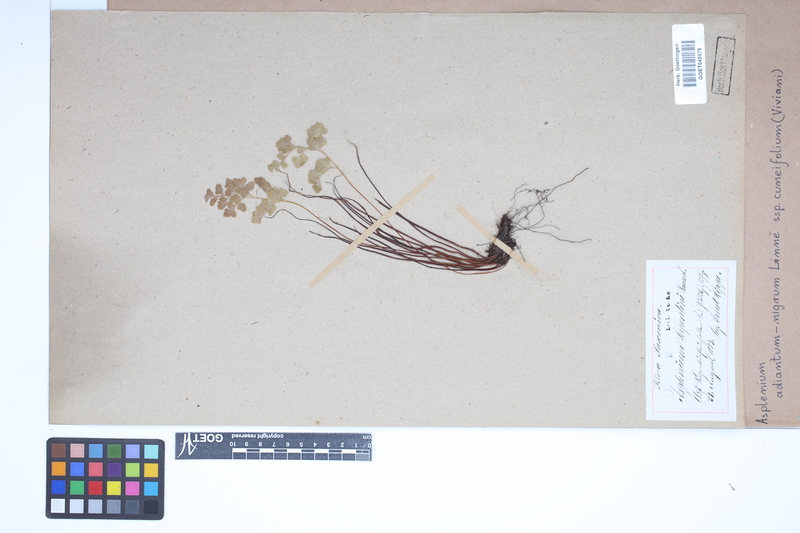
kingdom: Plantae
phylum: Tracheophyta
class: Polypodiopsida
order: Polypodiales
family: Aspleniaceae
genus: Asplenium
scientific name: Asplenium cuneifolium
